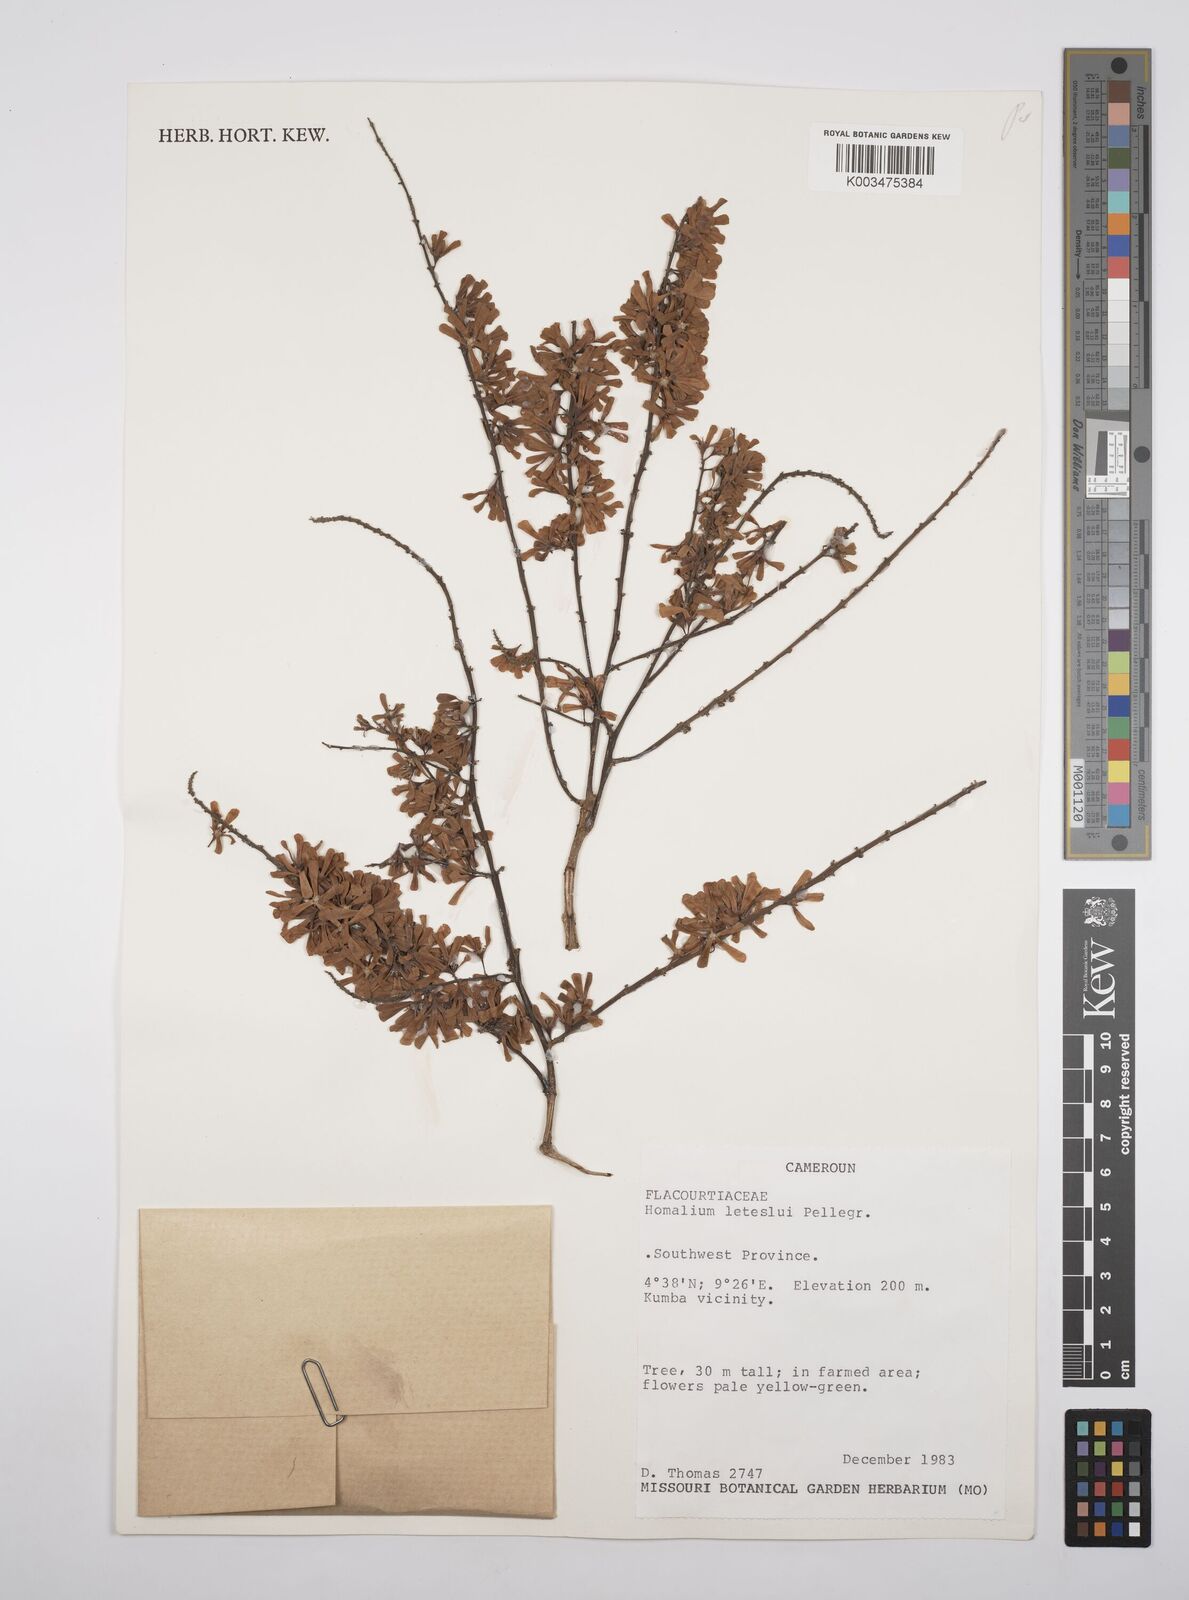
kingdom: Plantae
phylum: Tracheophyta
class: Magnoliopsida
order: Malpighiales
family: Salicaceae
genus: Homalium
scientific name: Homalium letestui
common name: African homalium
